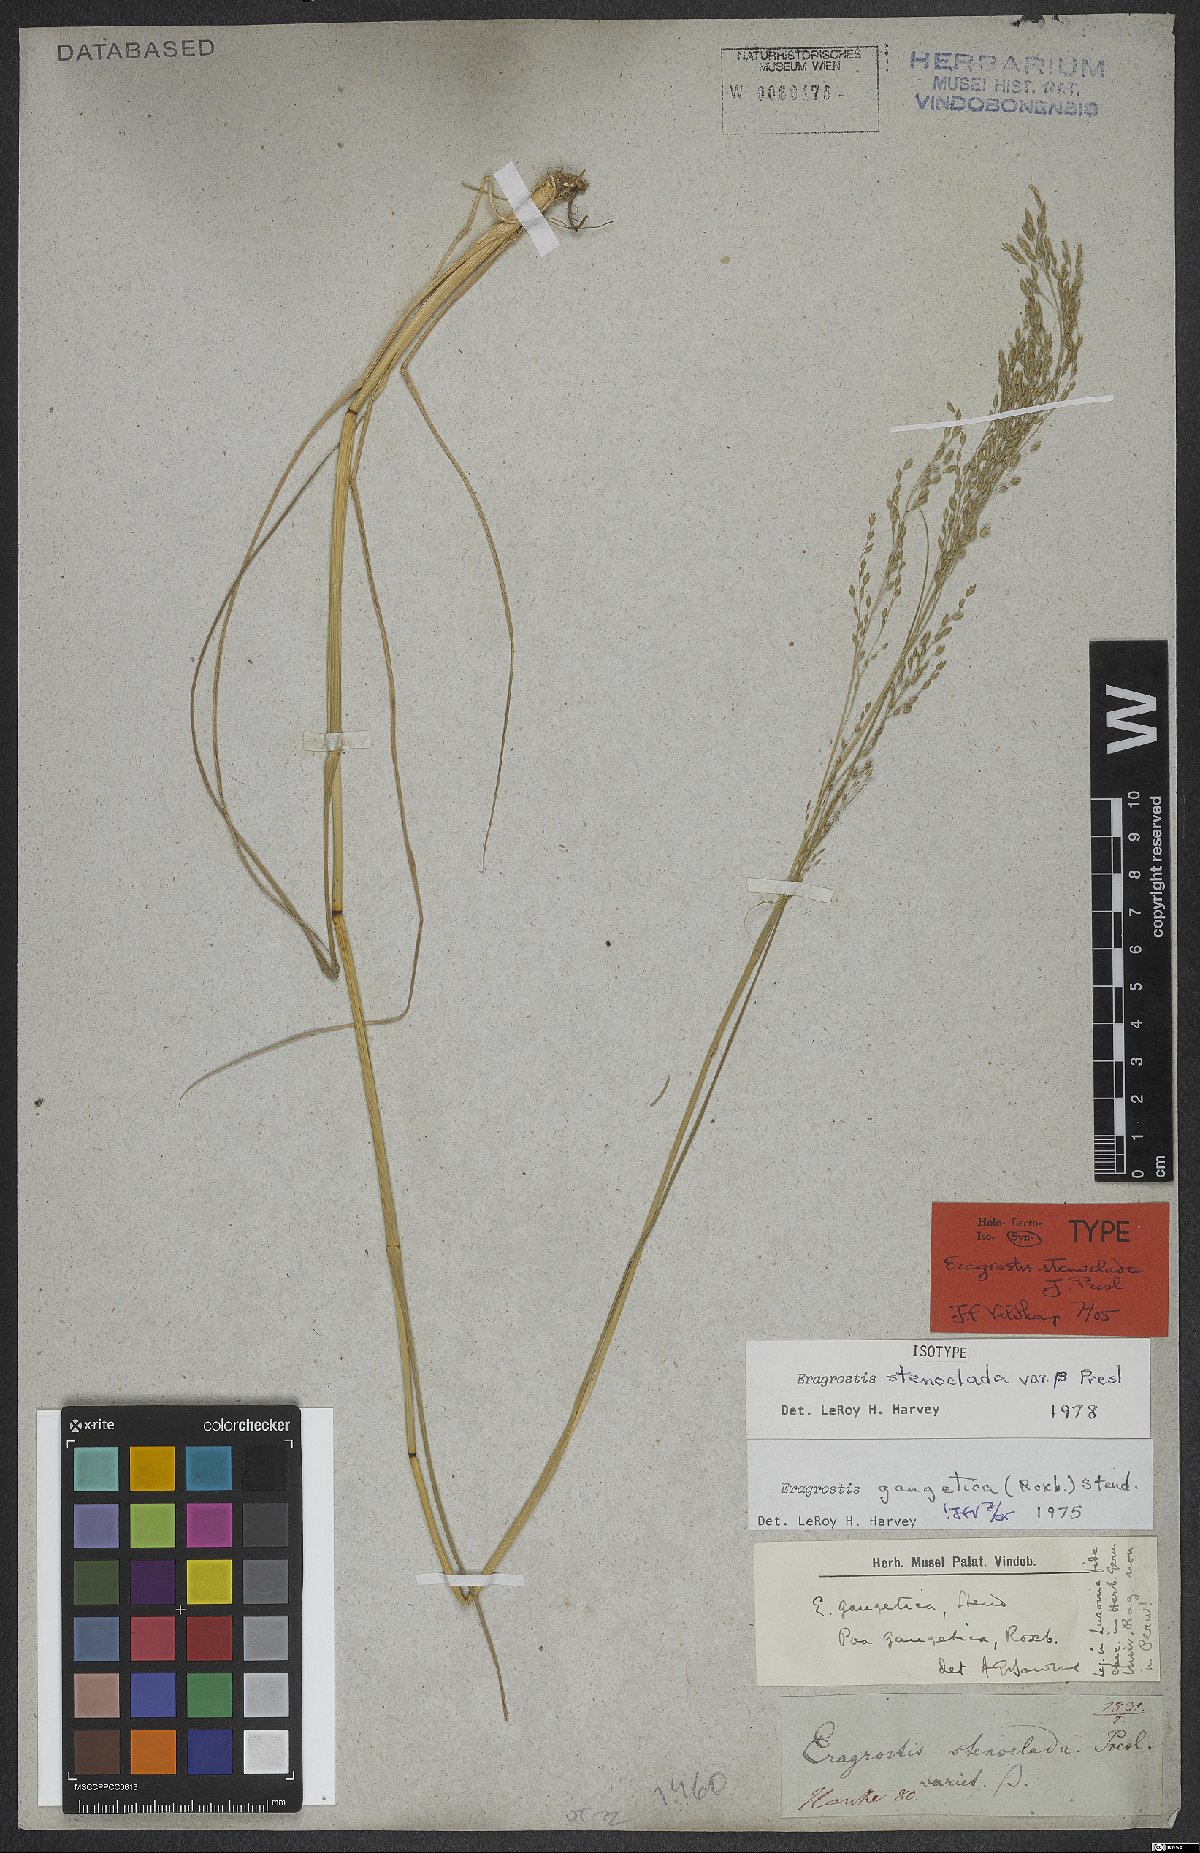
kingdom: Plantae
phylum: Tracheophyta
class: Liliopsida
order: Poales
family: Poaceae
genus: Eragrostis
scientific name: Eragrostis gangetica
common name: Slimflower lovegrass
